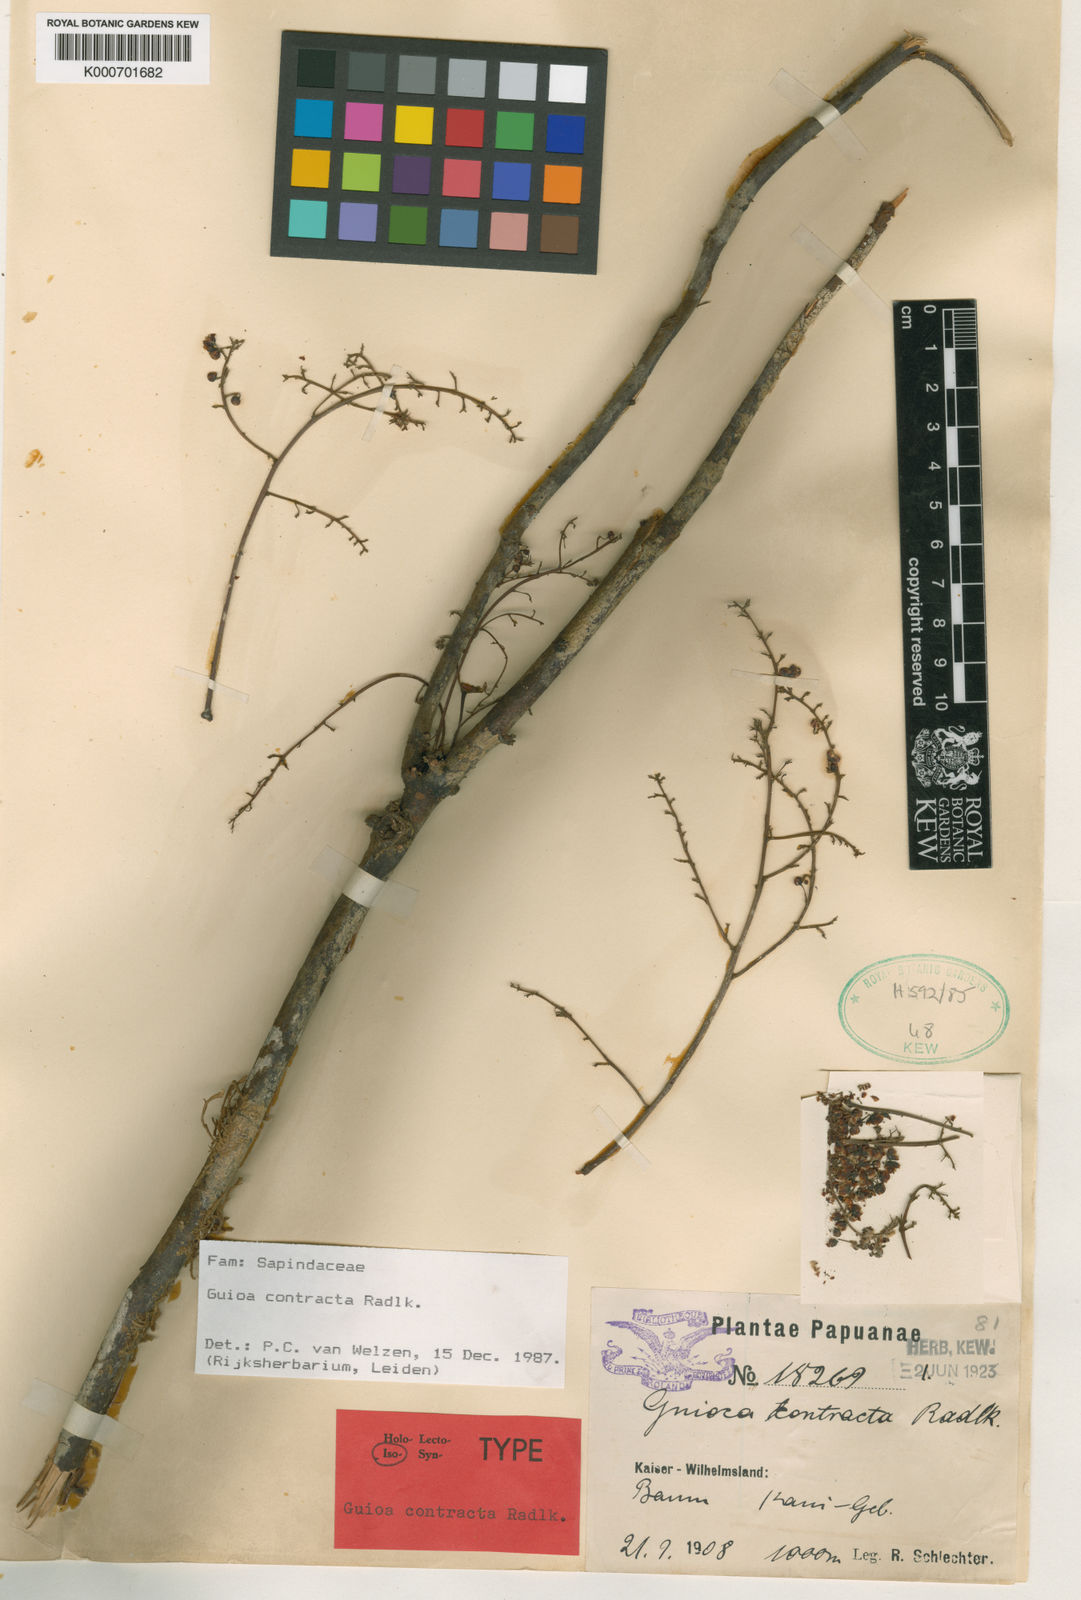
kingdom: Plantae
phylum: Tracheophyta
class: Magnoliopsida
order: Sapindales
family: Sapindaceae
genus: Guioa
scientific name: Guioa contracta
